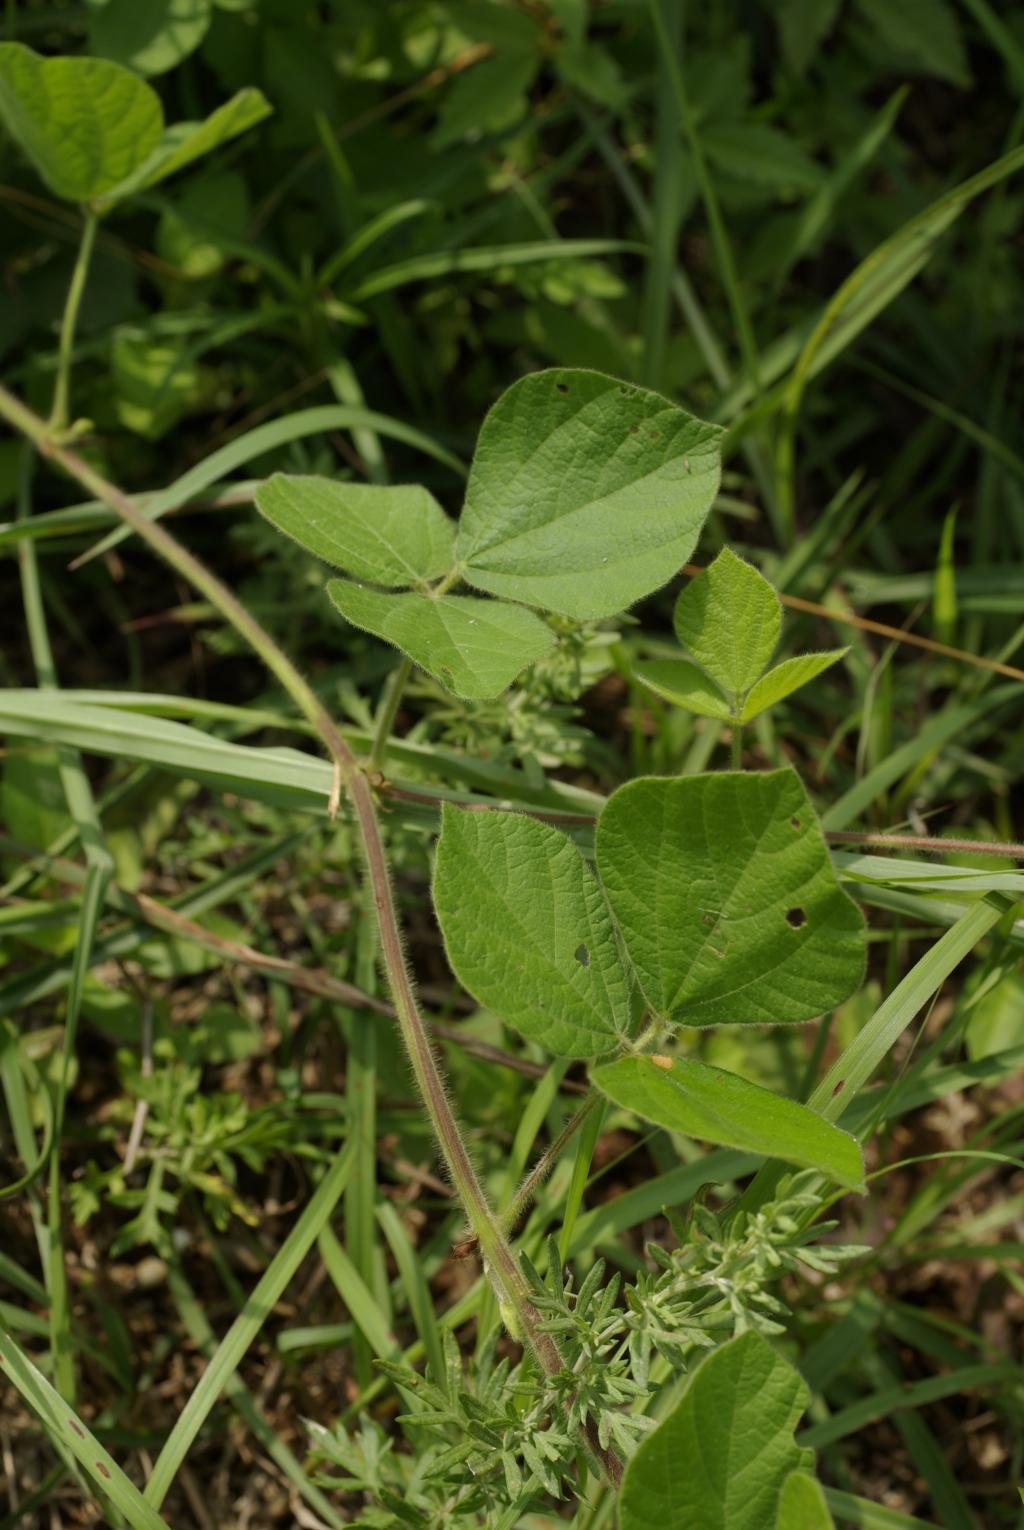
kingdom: Plantae
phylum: Tracheophyta
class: Magnoliopsida
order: Fabales
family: Fabaceae
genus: Rhynchosia
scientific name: Rhynchosia volubilis
